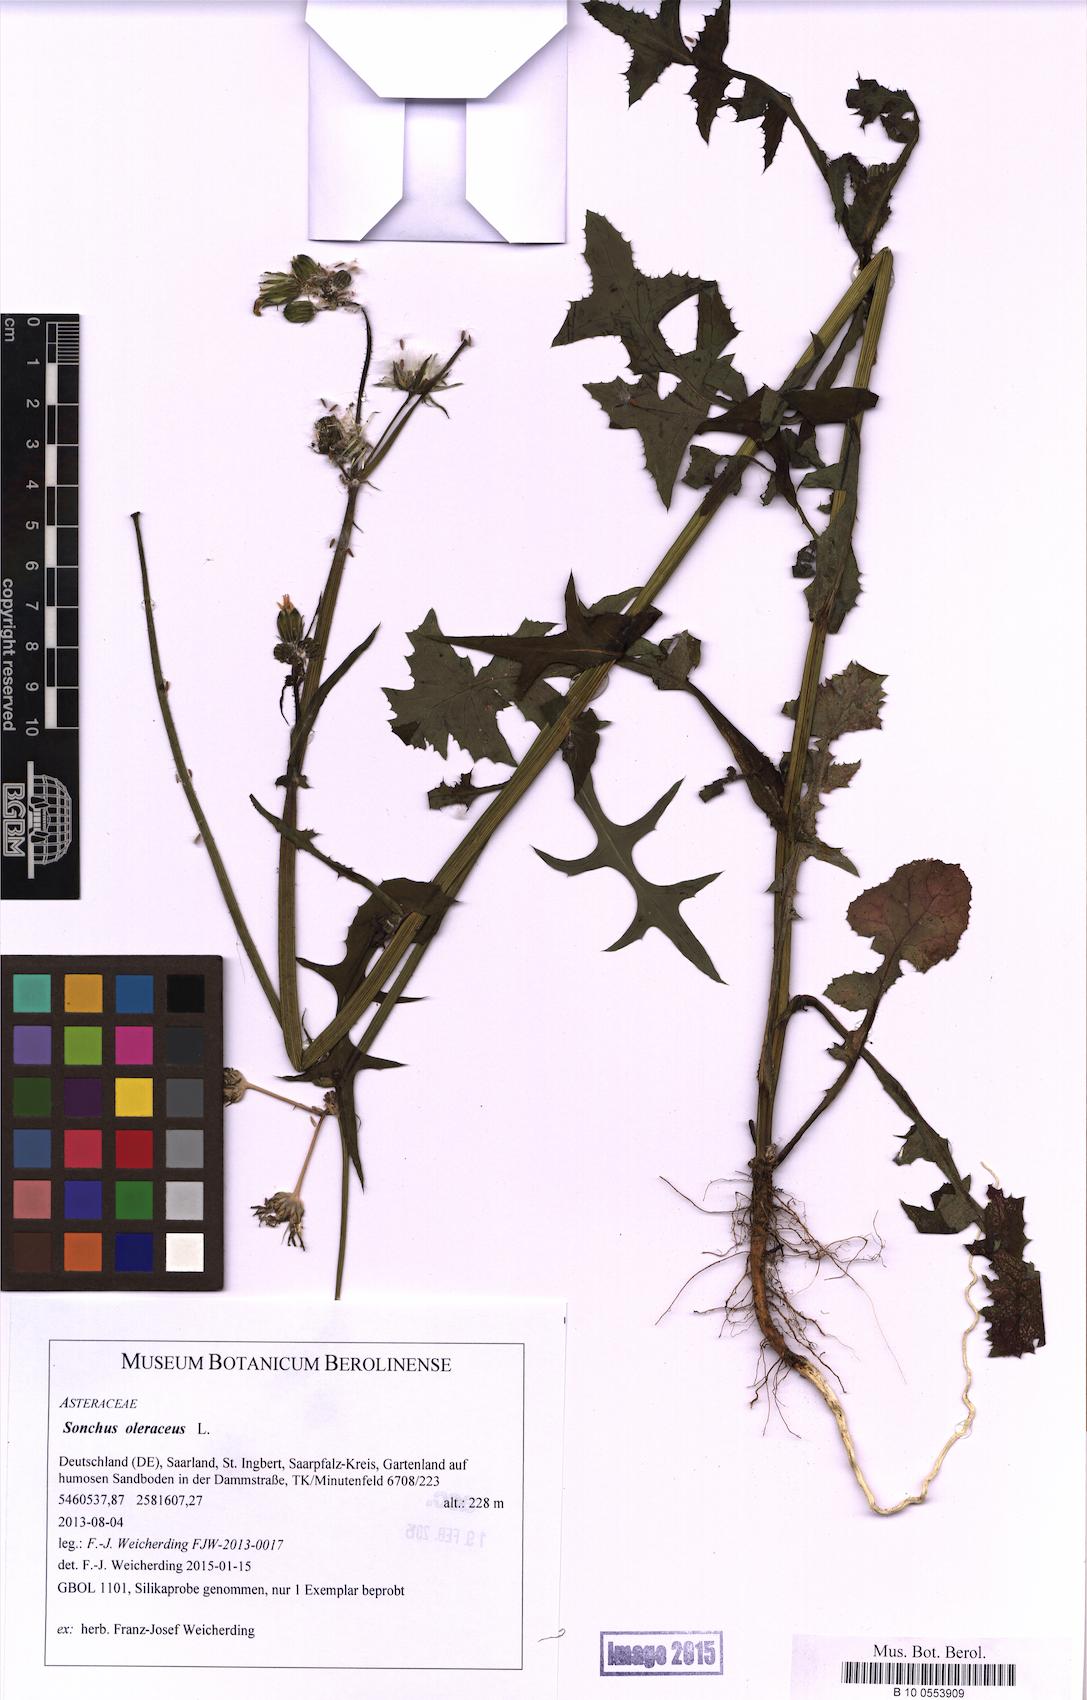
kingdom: Plantae
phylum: Tracheophyta
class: Magnoliopsida
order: Asterales
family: Asteraceae
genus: Sonchus
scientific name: Sonchus oleraceus
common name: Common sowthistle
